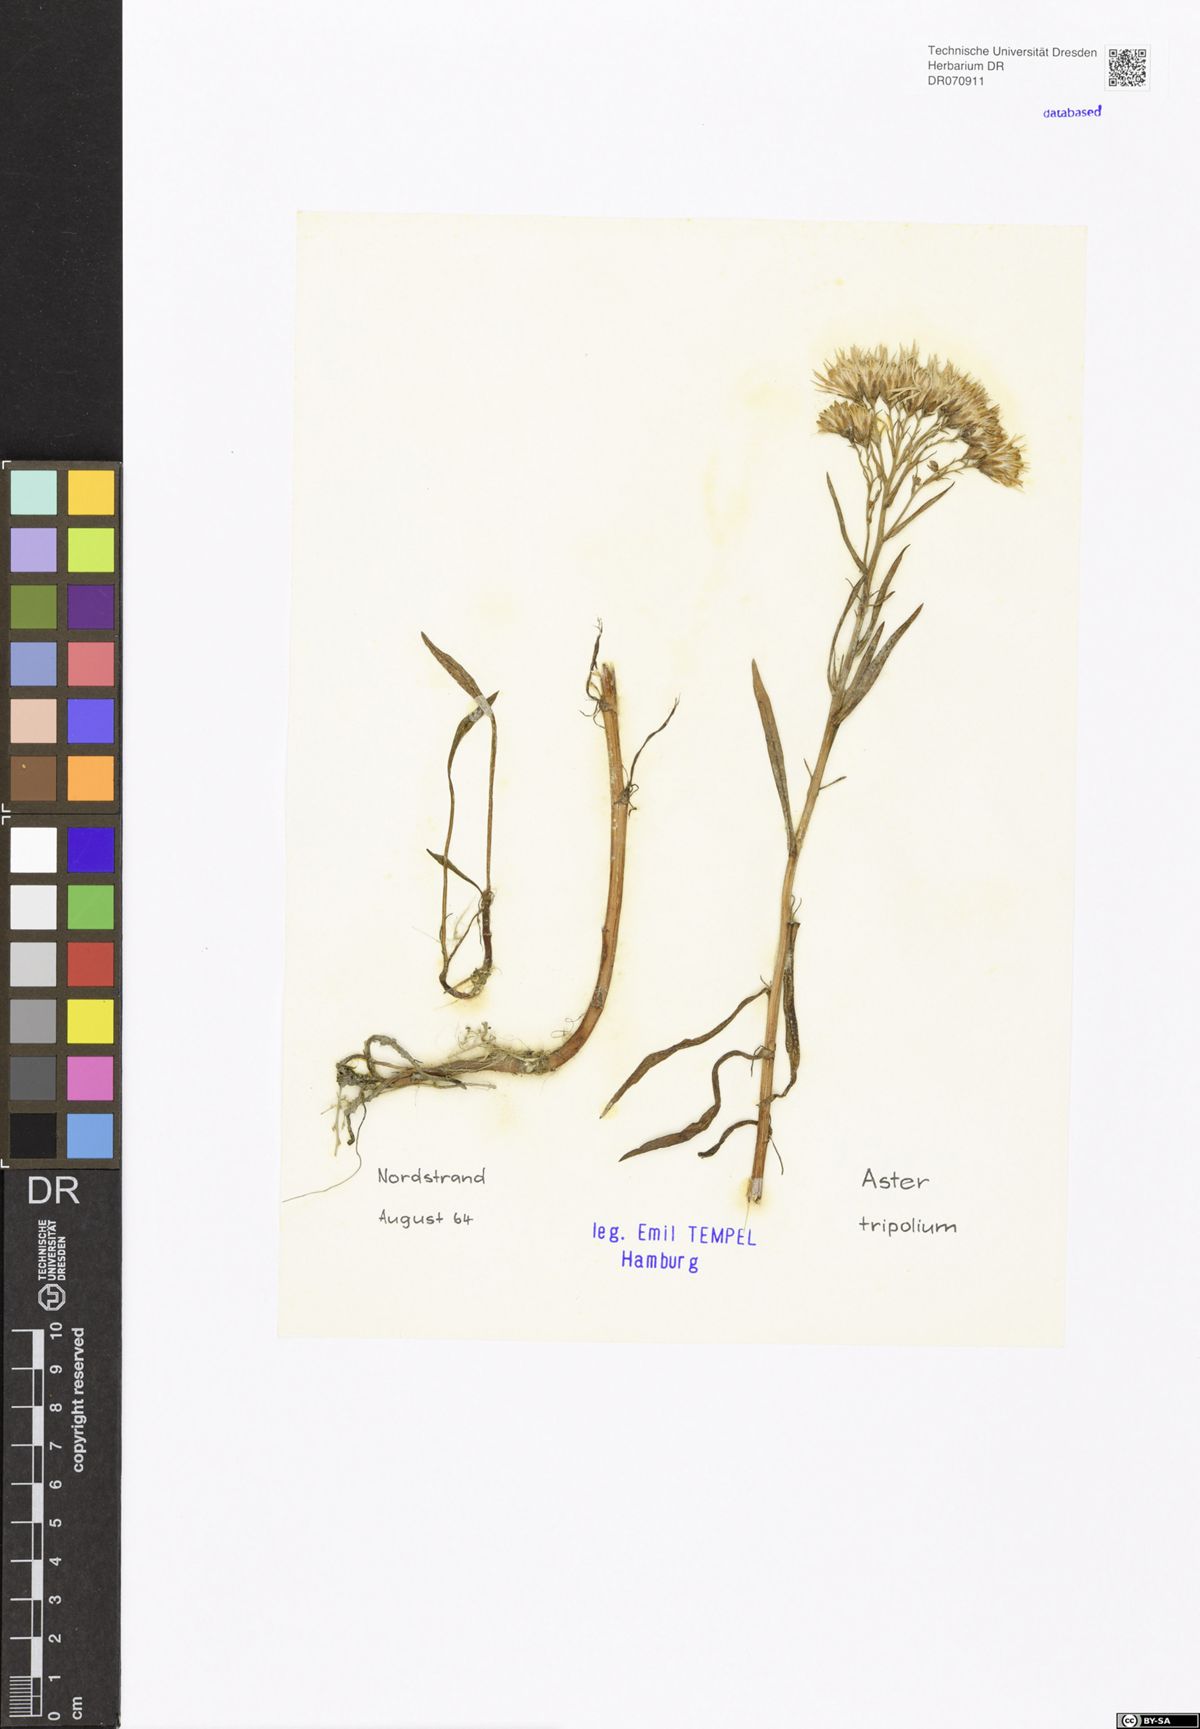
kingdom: Plantae
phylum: Tracheophyta
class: Magnoliopsida
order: Asterales
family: Asteraceae
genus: Tripolium
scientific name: Tripolium pannonicum
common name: Sea aster
